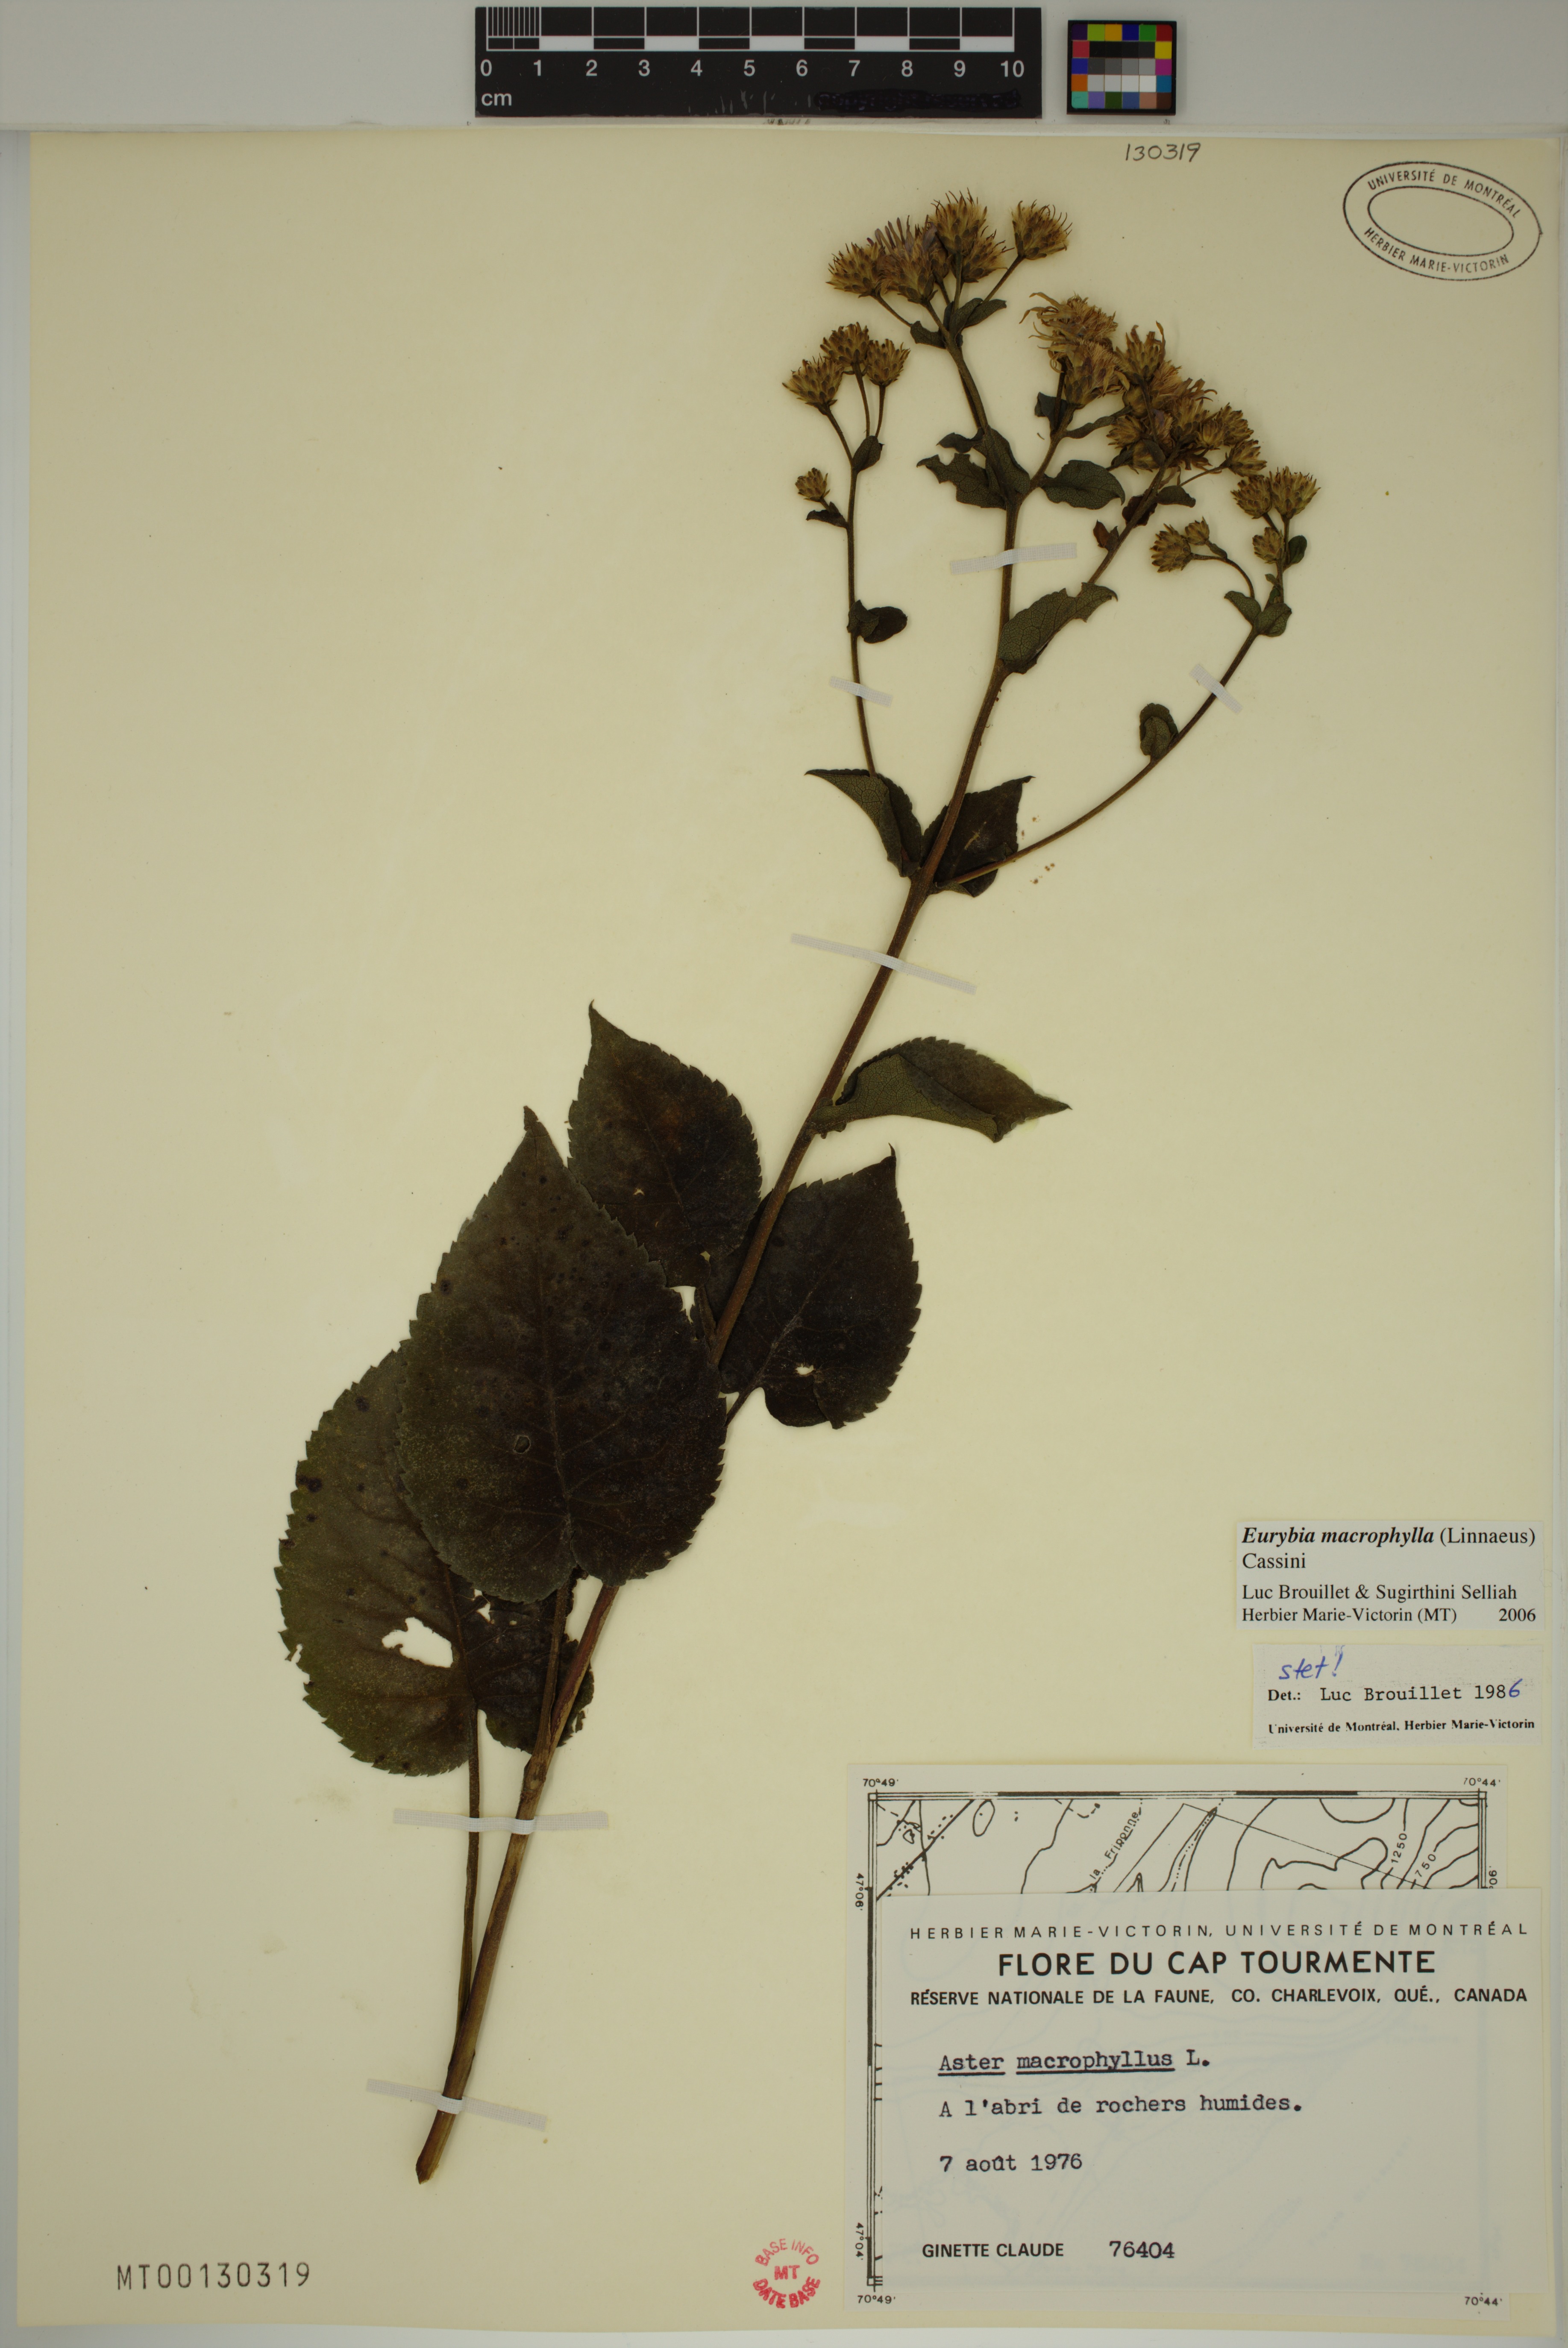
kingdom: Plantae
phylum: Tracheophyta
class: Magnoliopsida
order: Asterales
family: Asteraceae
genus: Eurybia
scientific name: Eurybia macrophylla
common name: Big-leaved aster
